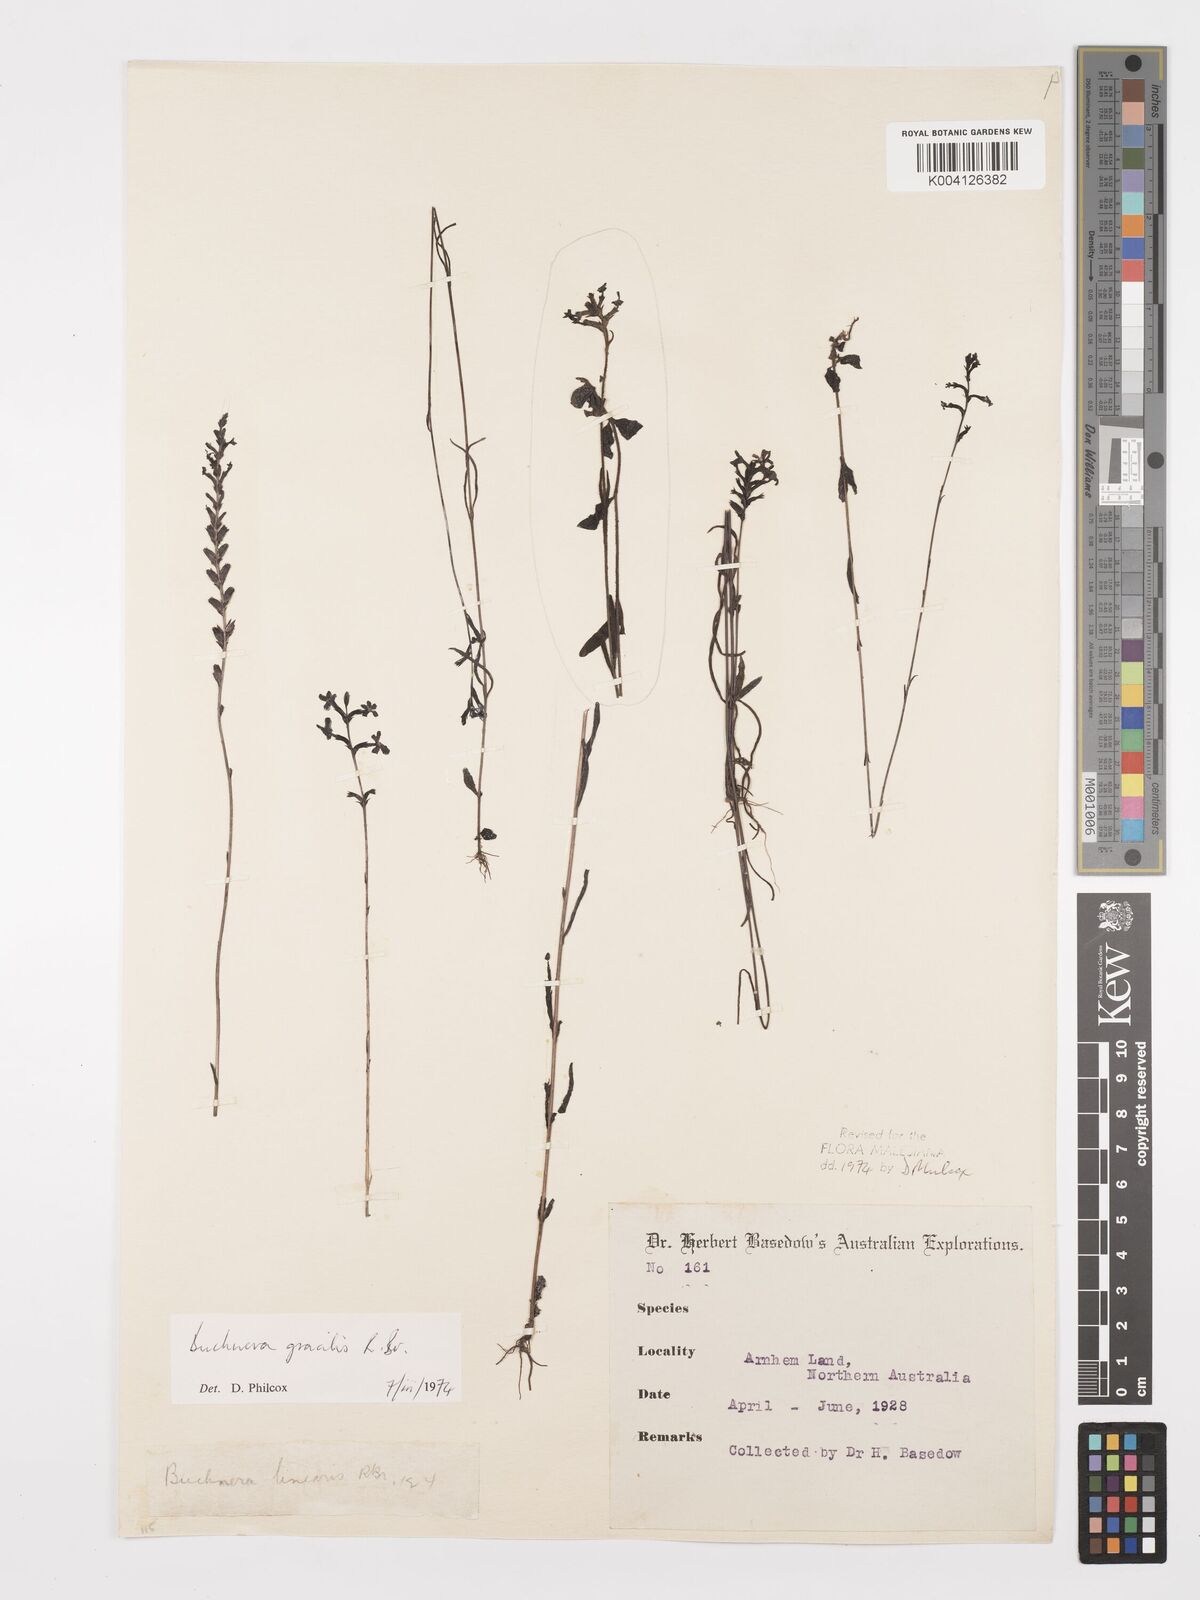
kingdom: Plantae
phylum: Tracheophyta
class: Magnoliopsida
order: Lamiales
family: Orobanchaceae
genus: Buchnera
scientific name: Buchnera gracilis
